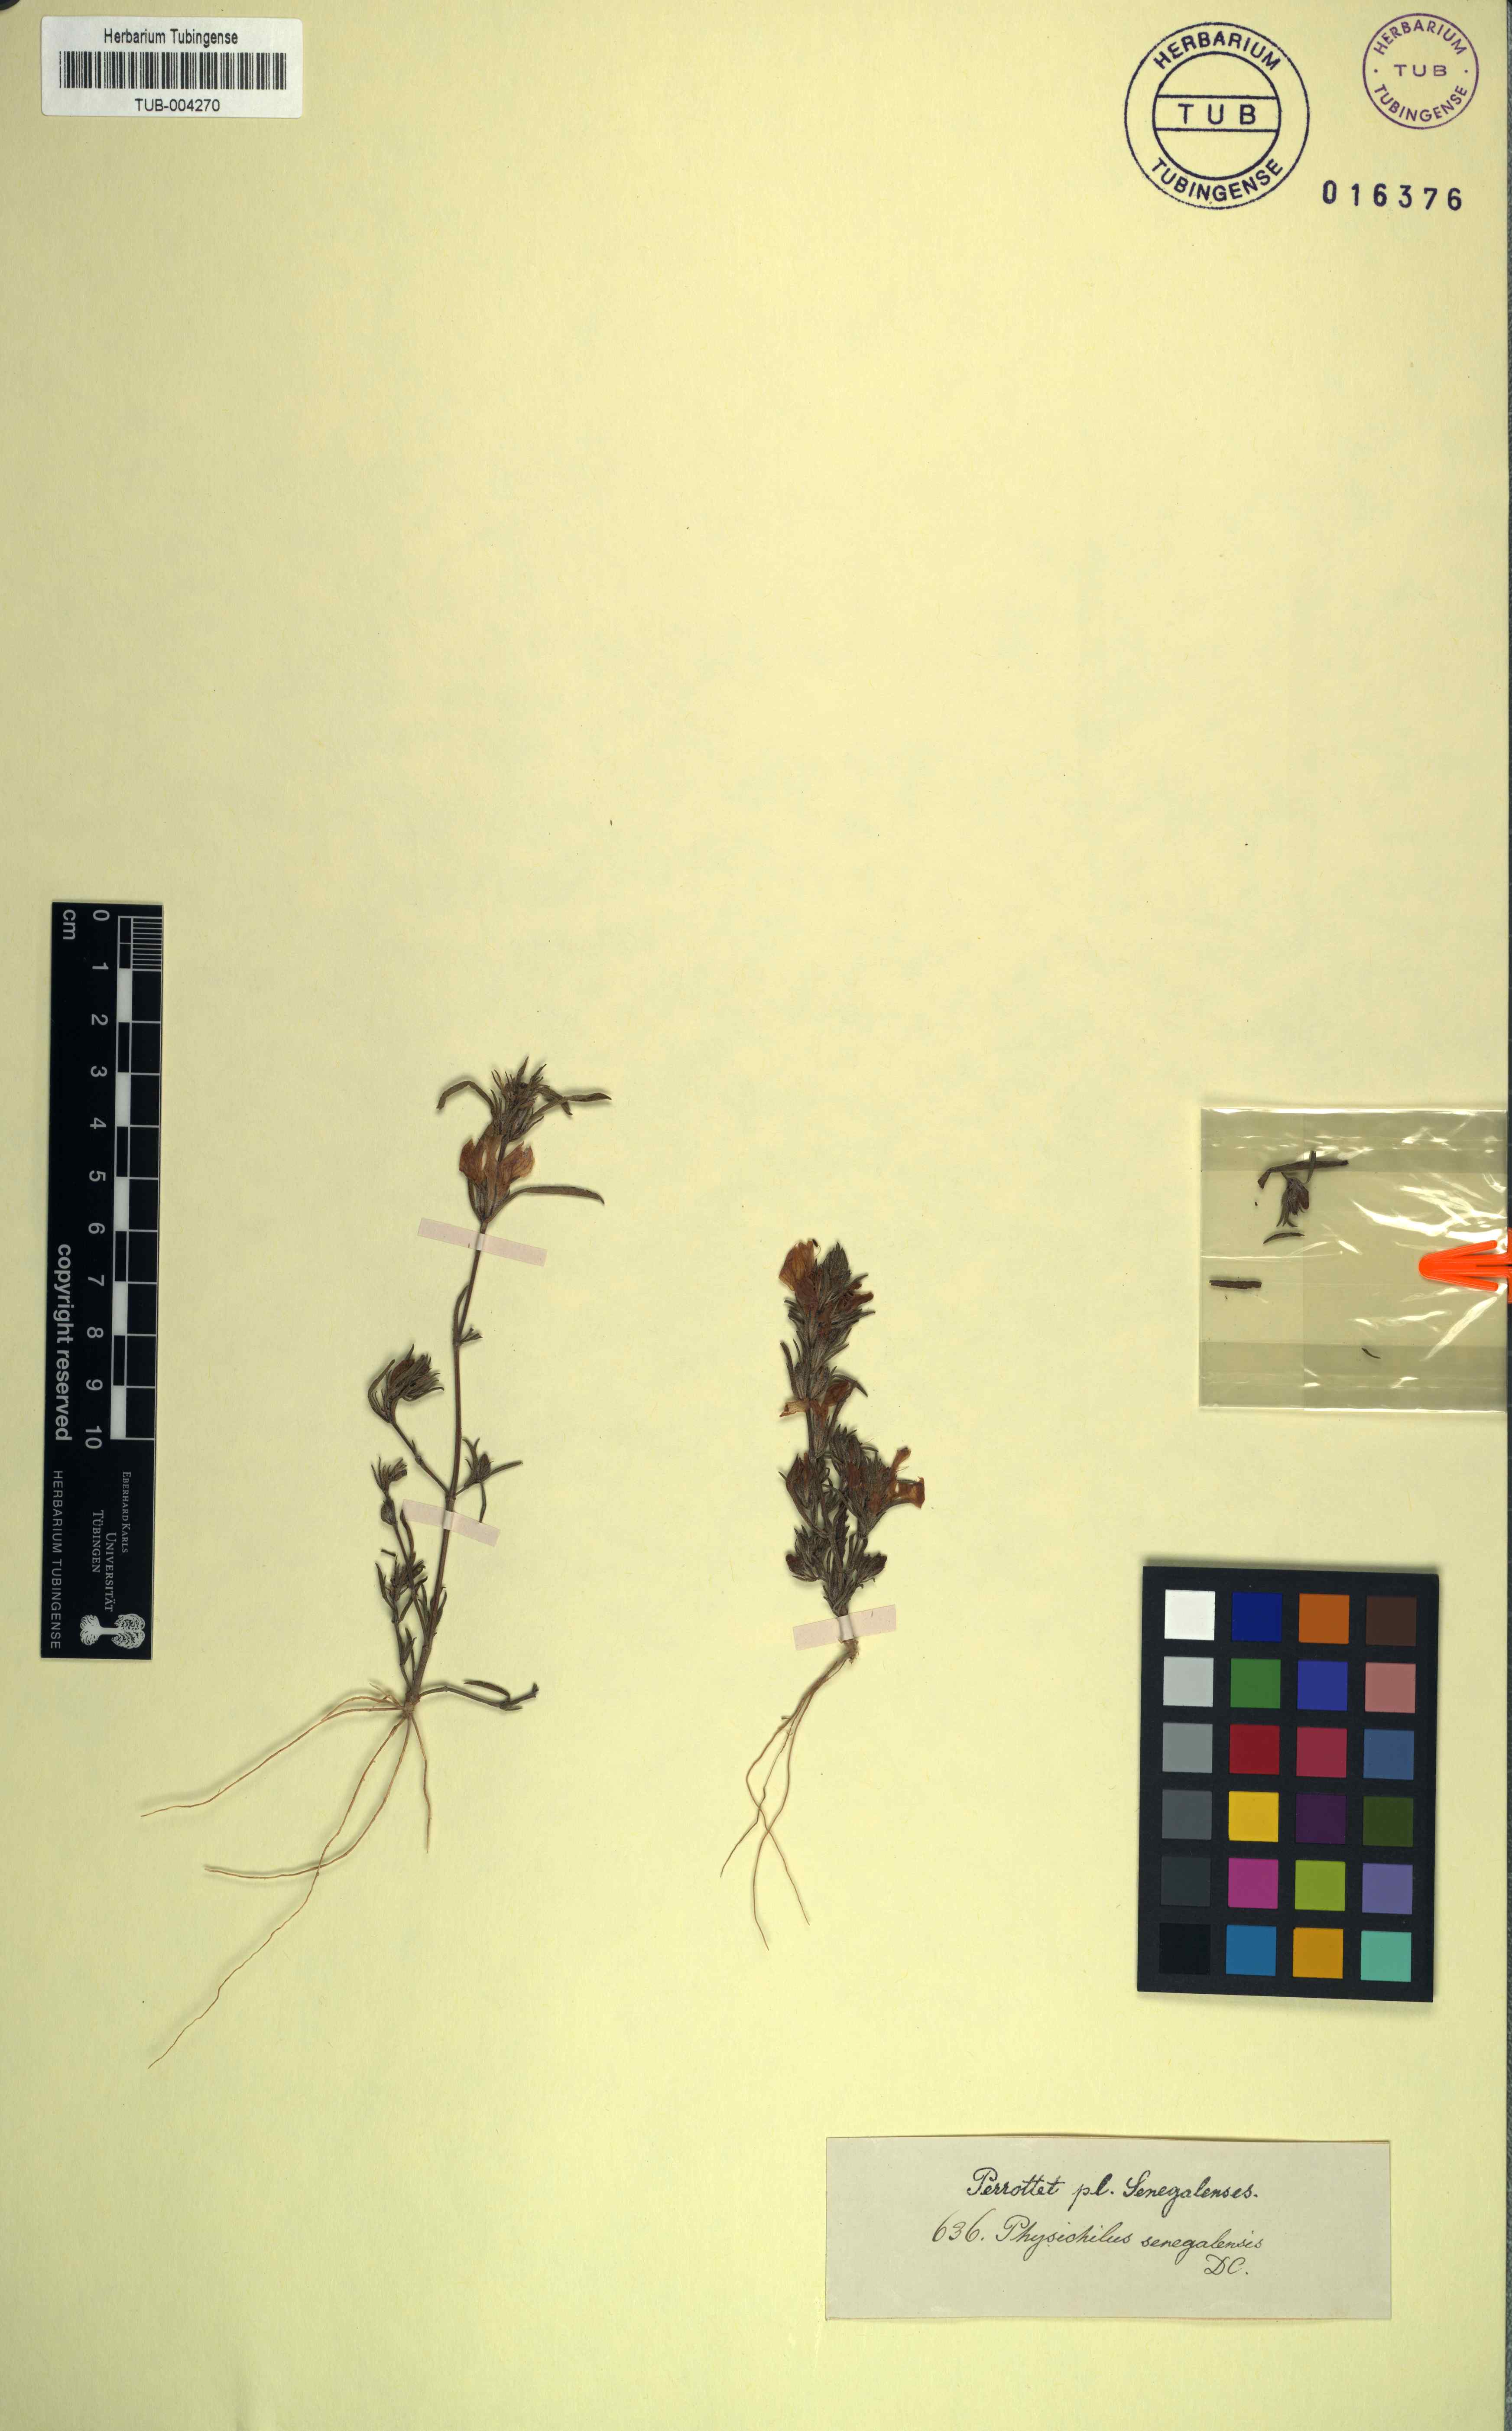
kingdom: Plantae
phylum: Tracheophyta
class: Magnoliopsida
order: Lamiales
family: Acanthaceae
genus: Hygrophila
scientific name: Hygrophila micrantha
